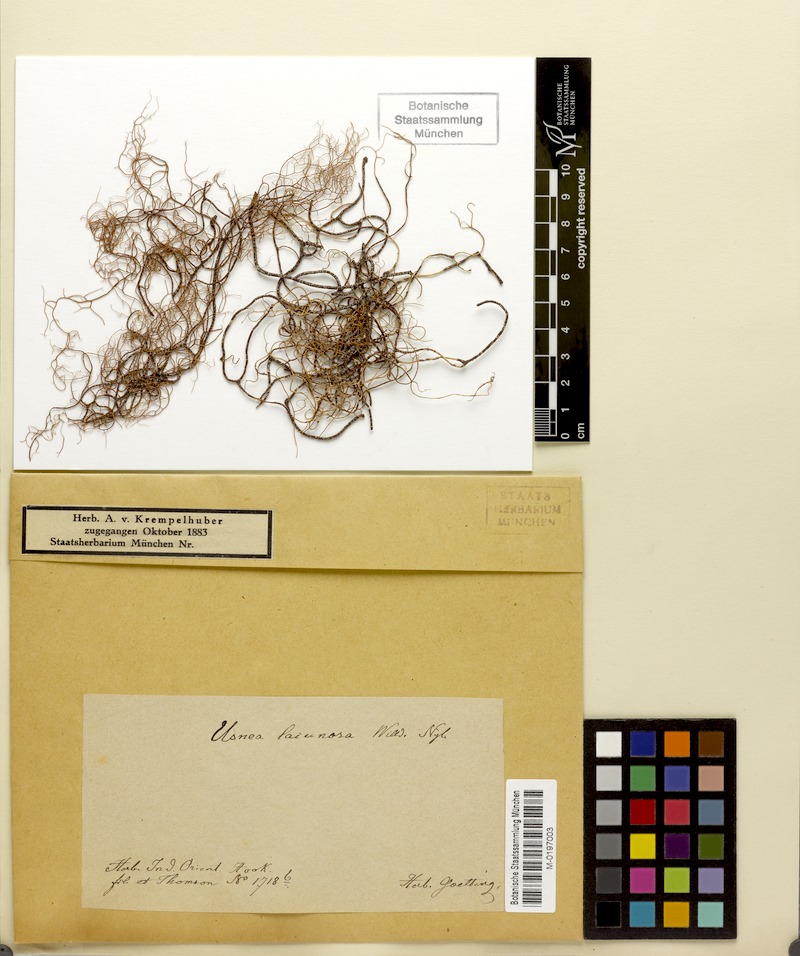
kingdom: Fungi
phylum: Ascomycota
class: Lecanoromycetes
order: Lecanorales
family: Parmeliaceae
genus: Usnea
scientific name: Usnea cavernosa
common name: Pitted beard lichen
